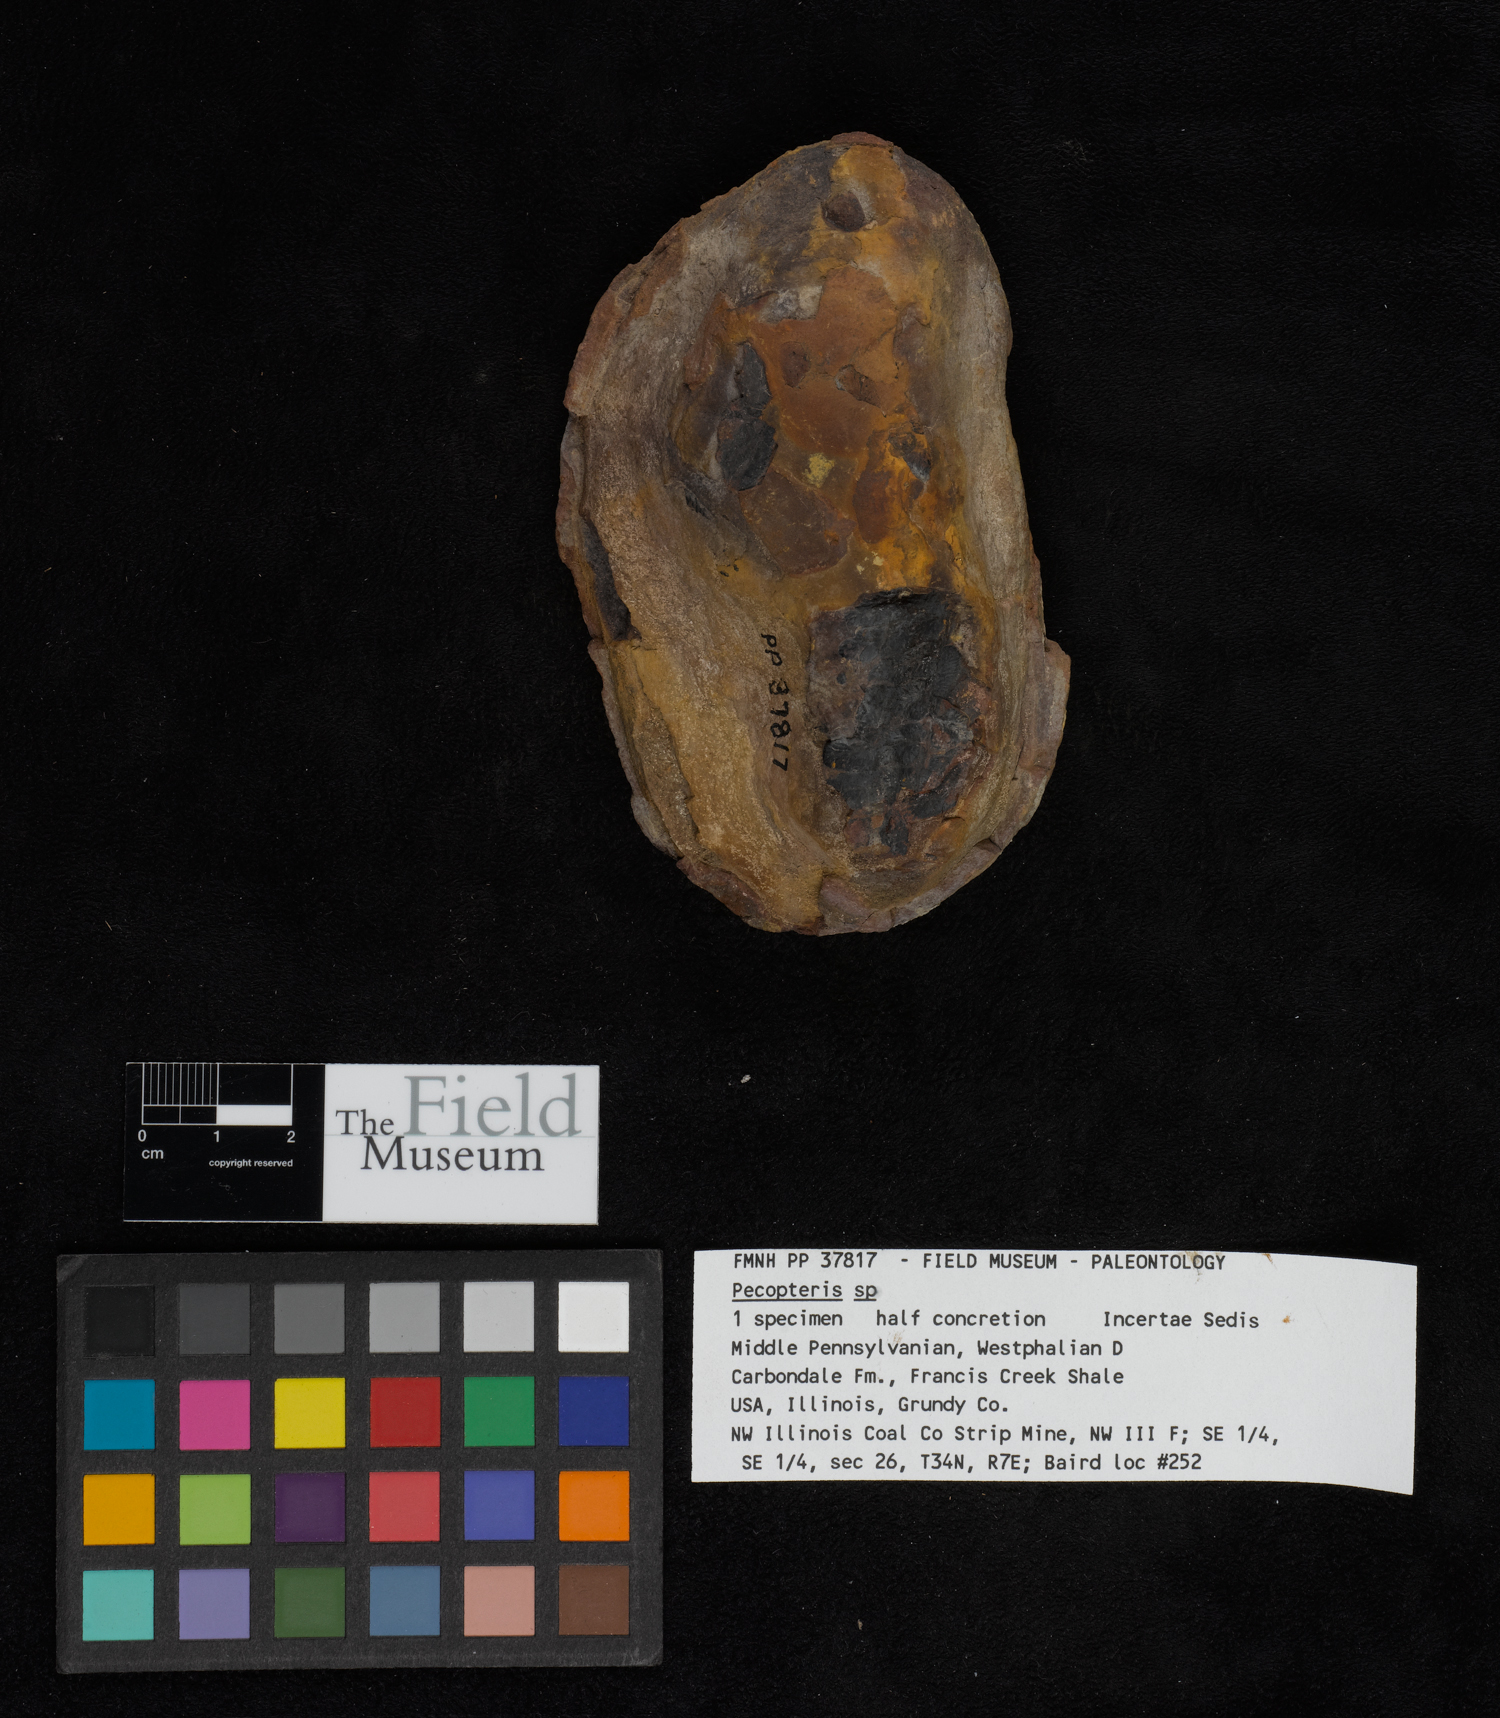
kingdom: Plantae
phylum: Tracheophyta
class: Polypodiopsida
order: Marattiales
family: Asterothecaceae
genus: Pecopteris
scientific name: Pecopteris
